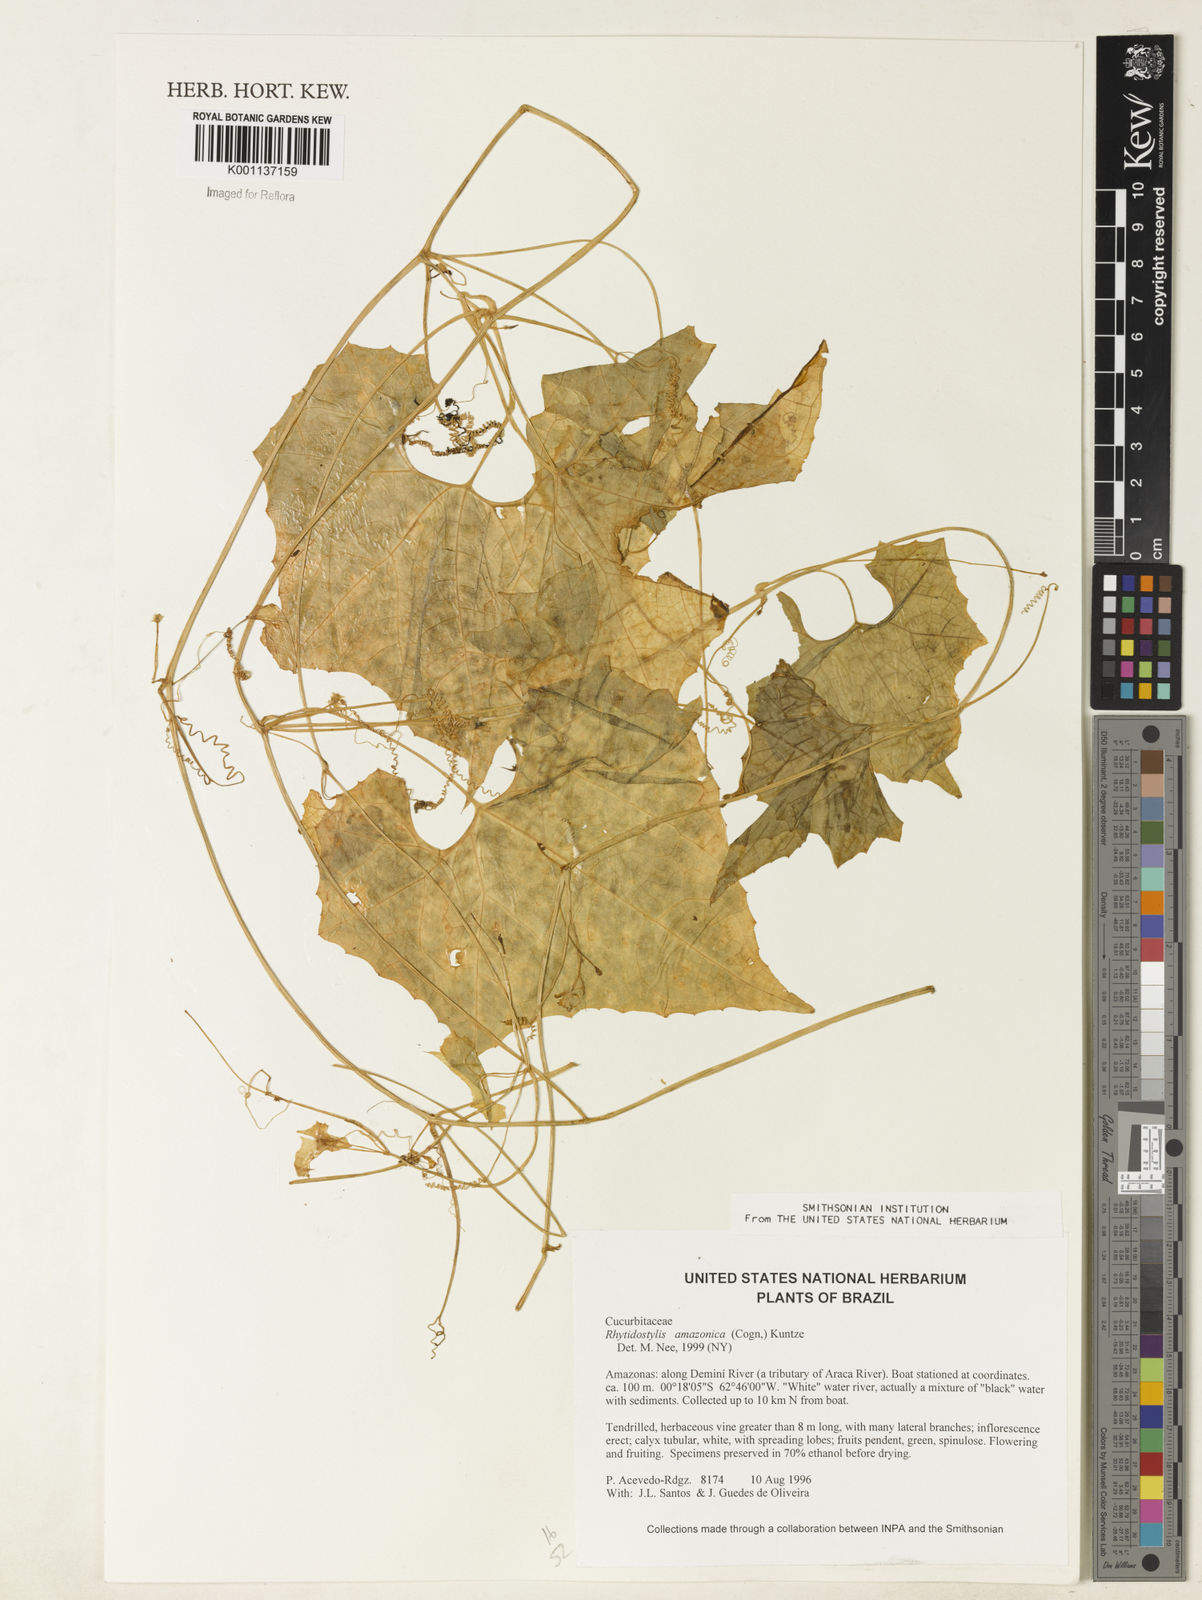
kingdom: Plantae
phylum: Tracheophyta
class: Magnoliopsida
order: Cucurbitales
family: Cucurbitaceae
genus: Cyclanthera
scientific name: Cyclanthera carthagenensis
